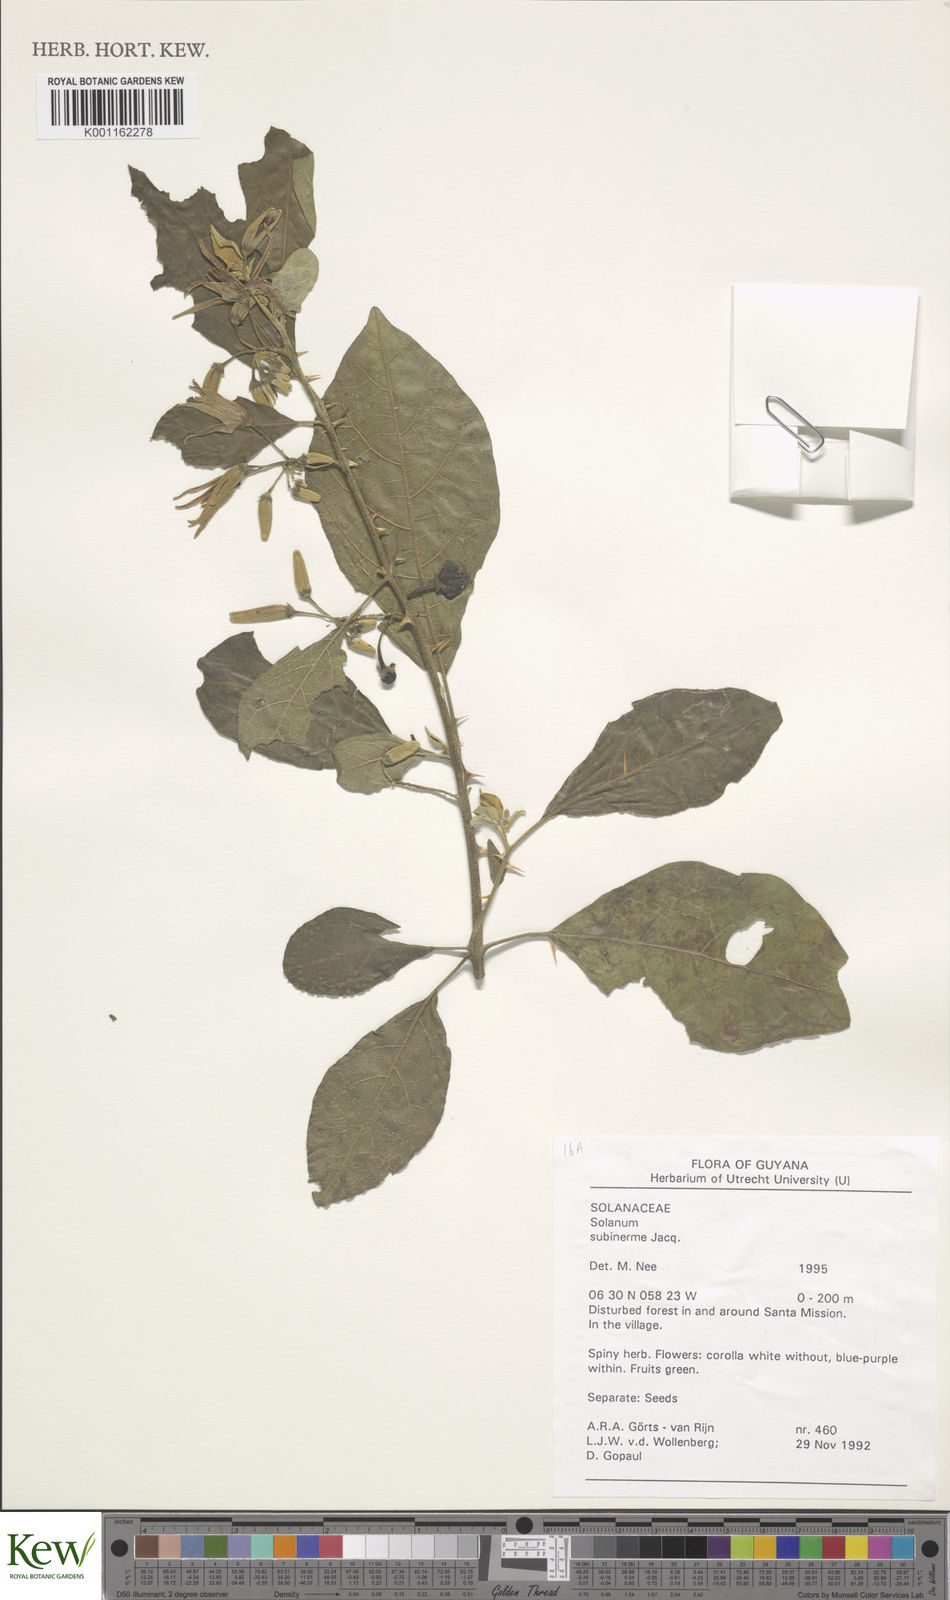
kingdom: Plantae
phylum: Tracheophyta
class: Magnoliopsida
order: Solanales
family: Solanaceae
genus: Solanum
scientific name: Solanum subinerme
